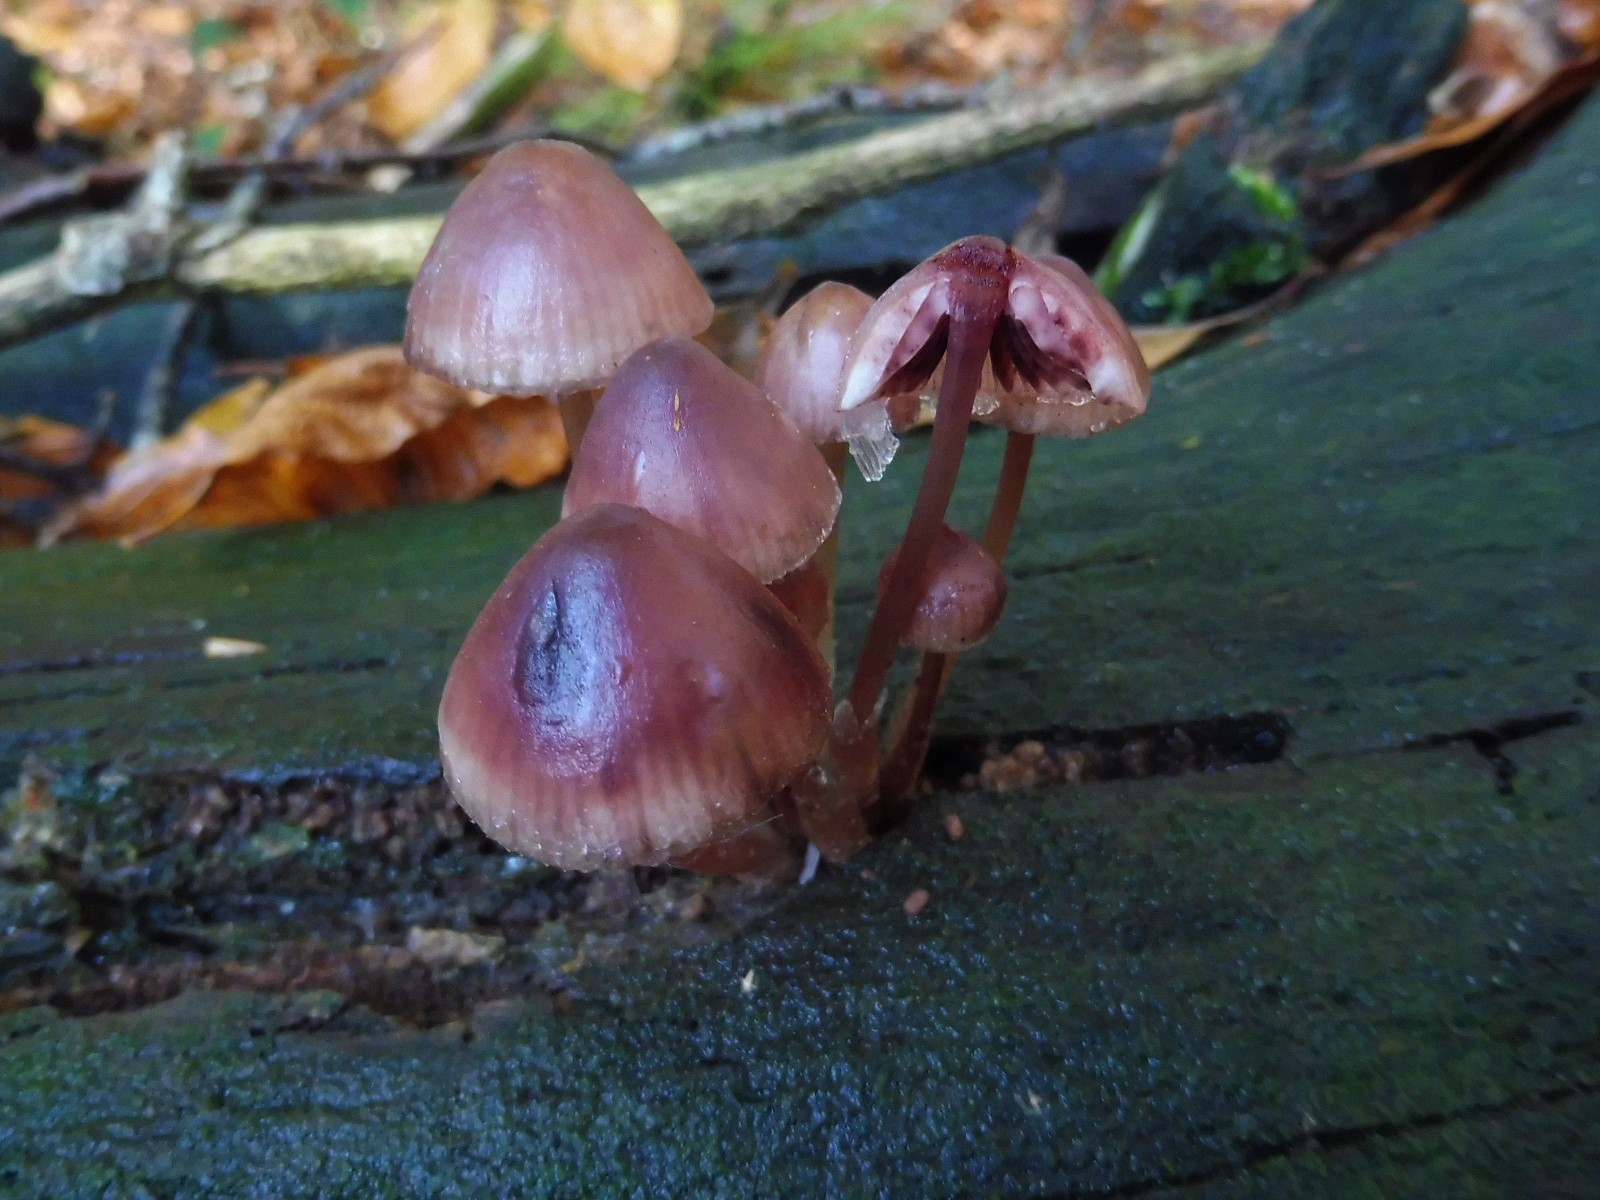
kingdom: Fungi
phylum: Basidiomycota
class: Agaricomycetes
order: Agaricales
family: Mycenaceae
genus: Mycena
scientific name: Mycena haematopus
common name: blødende huesvamp
